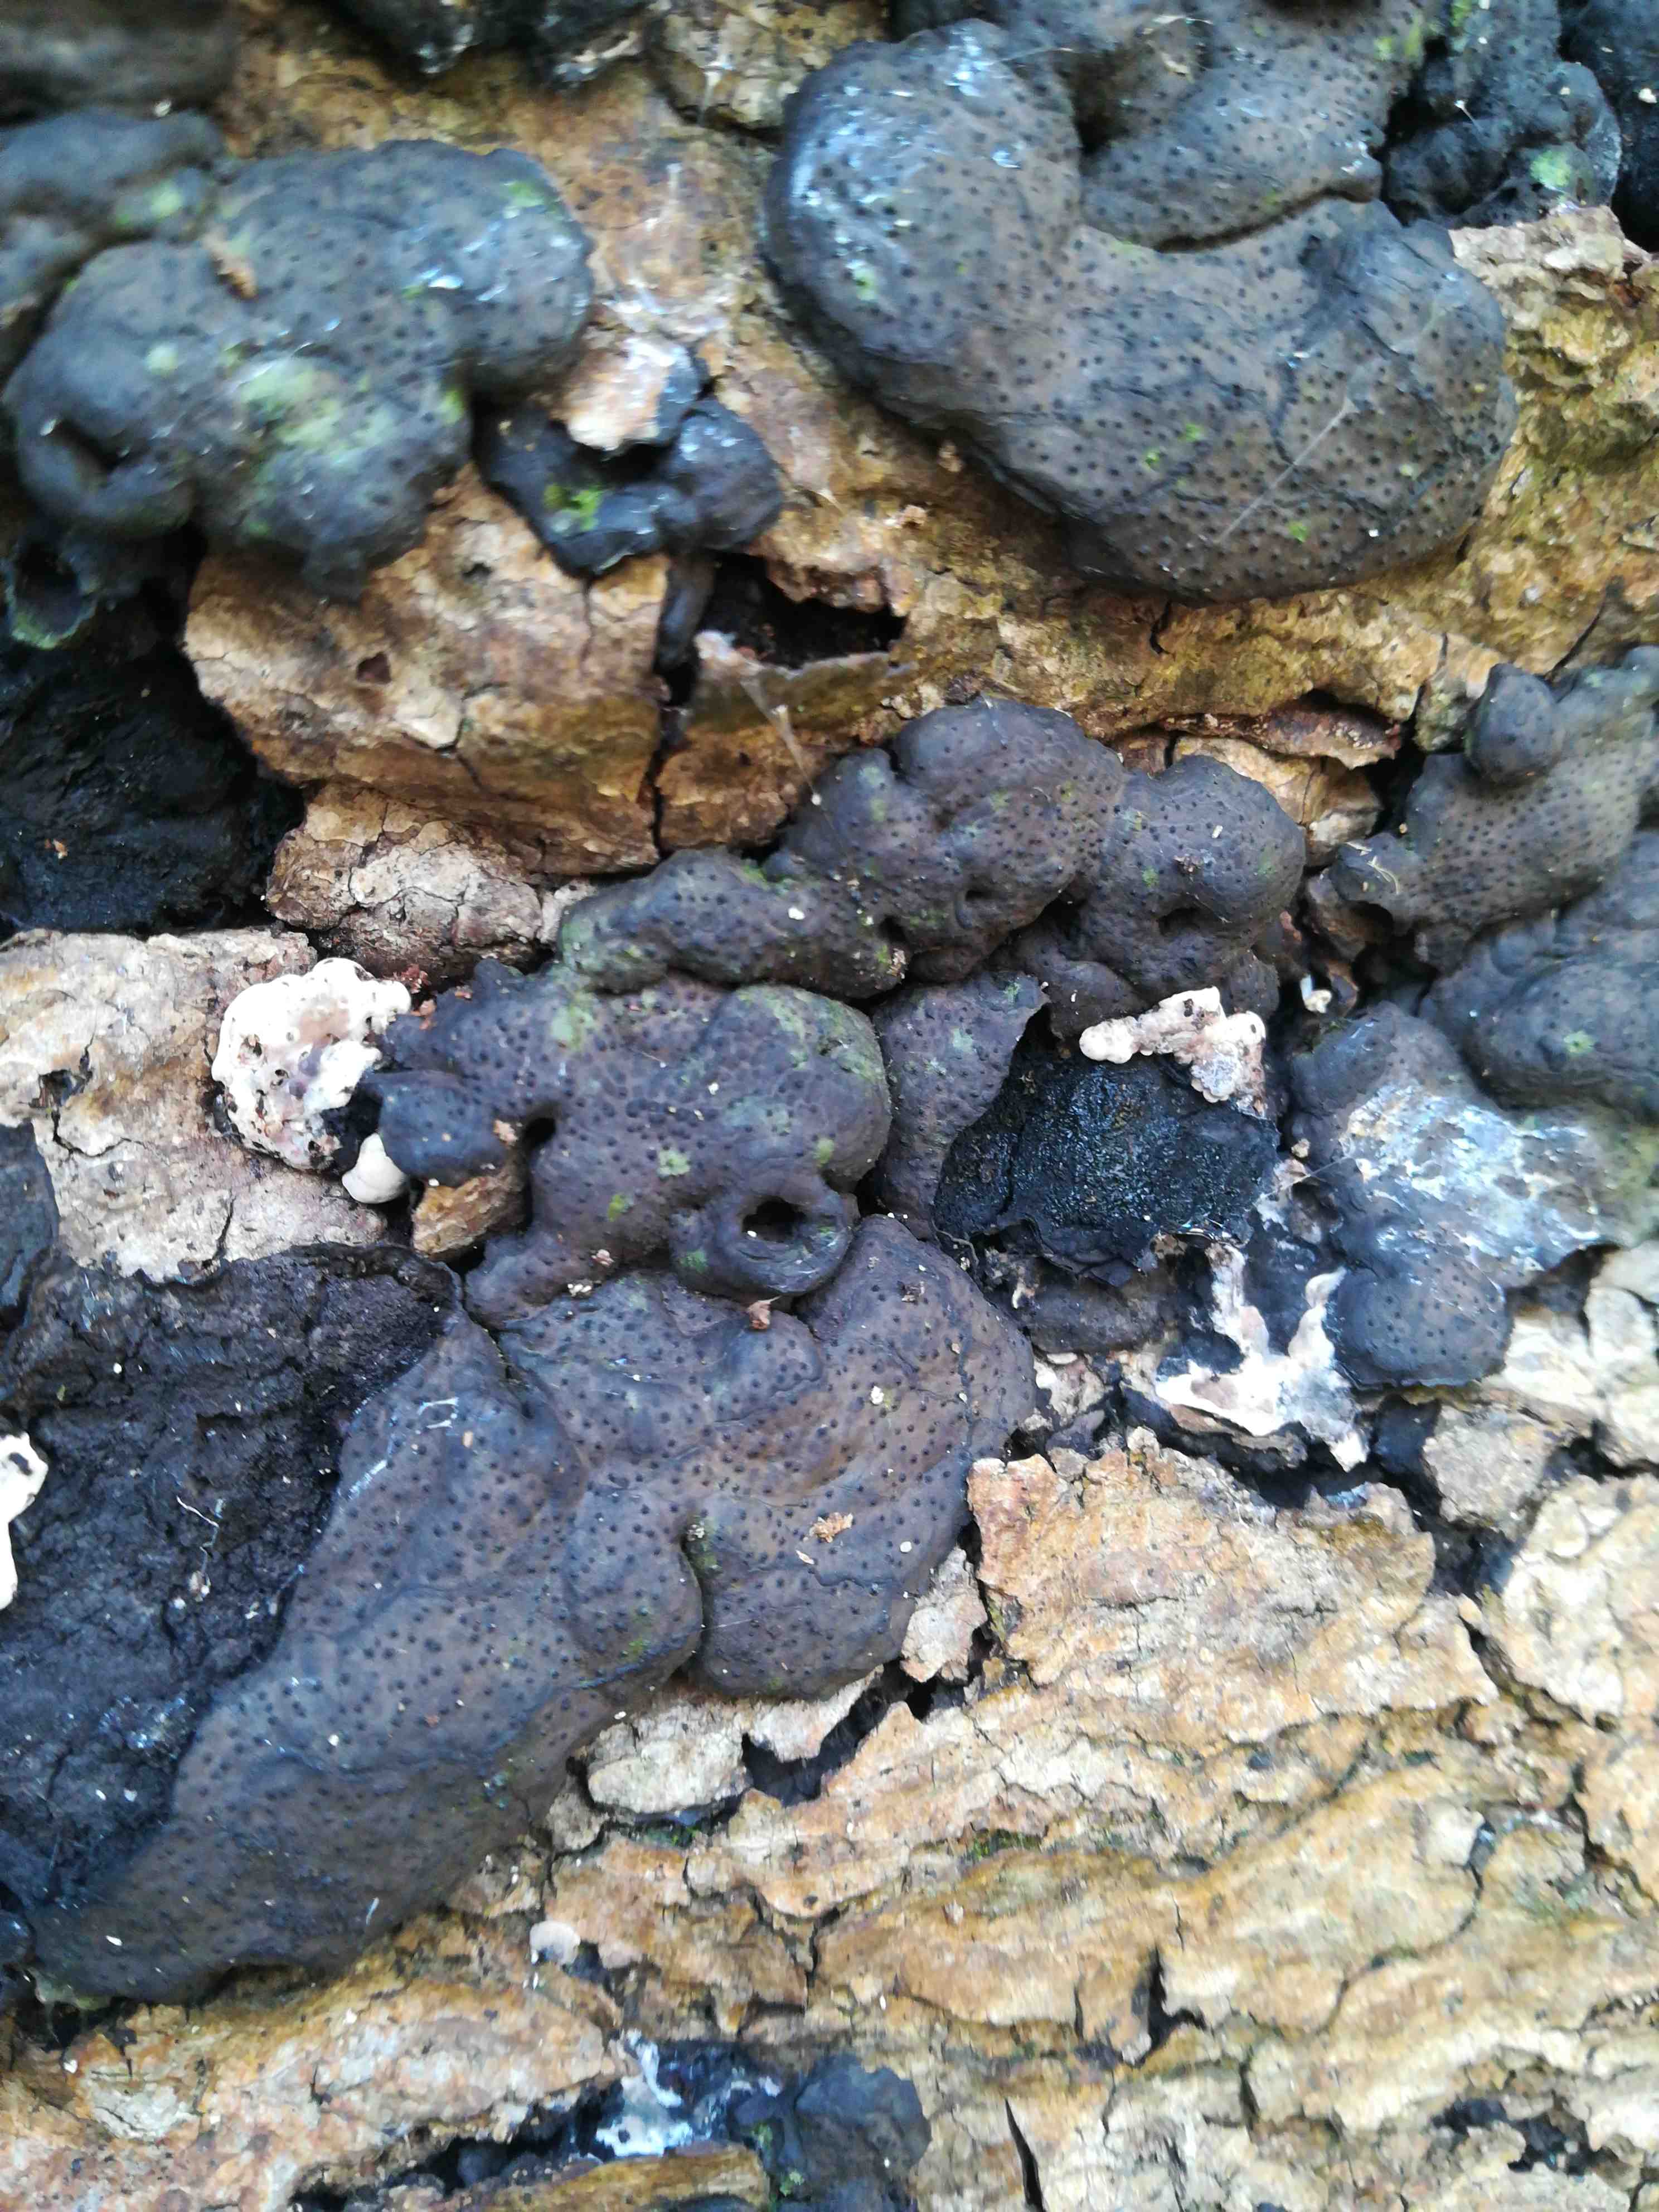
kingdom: Fungi
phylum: Ascomycota
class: Sordariomycetes
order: Xylariales
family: Xylariaceae
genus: Kretzschmaria
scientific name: Kretzschmaria deusta
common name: stor kulsvamp
